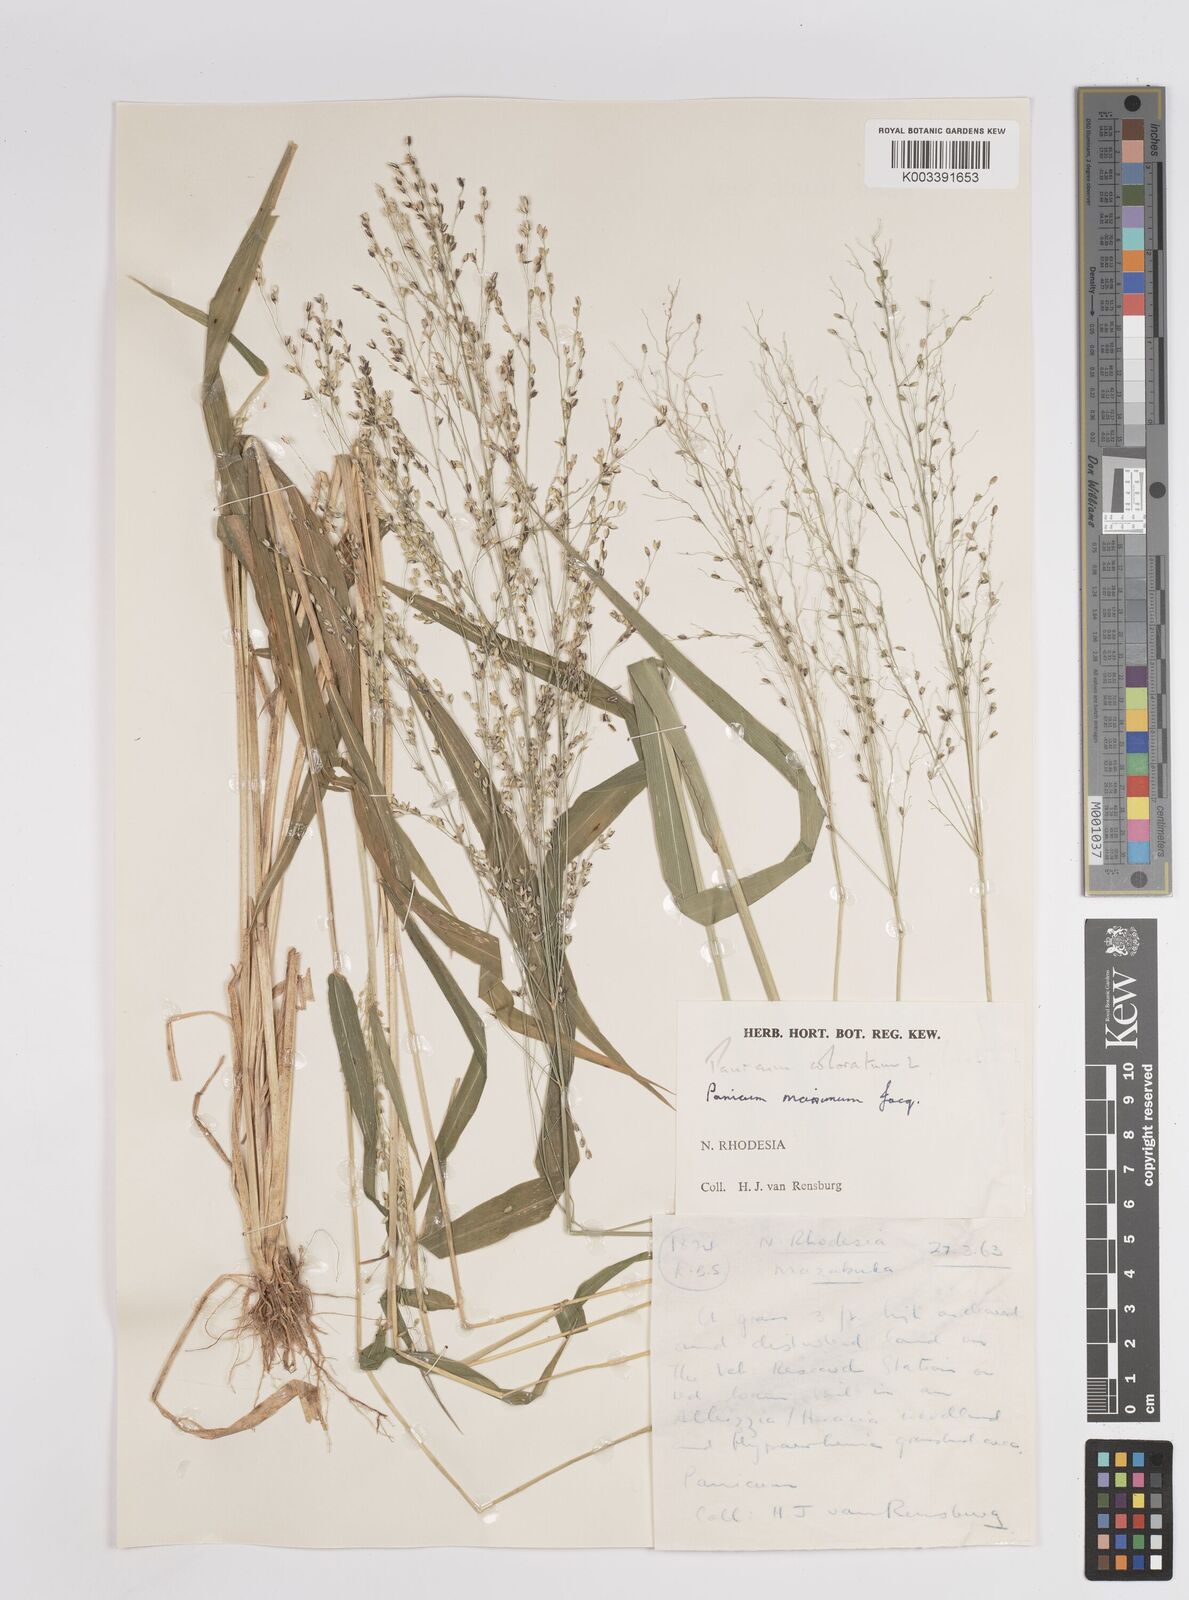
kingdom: Plantae
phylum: Tracheophyta
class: Liliopsida
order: Poales
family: Poaceae
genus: Megathyrsus
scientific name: Megathyrsus maximus
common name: Guineagrass
